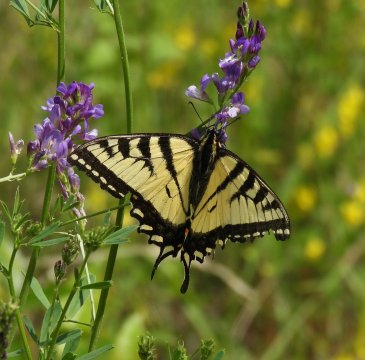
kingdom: Animalia
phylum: Arthropoda
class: Insecta
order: Lepidoptera
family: Papilionidae
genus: Pterourus
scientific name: Pterourus canadensis
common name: Canadian Tiger Swallowtail
